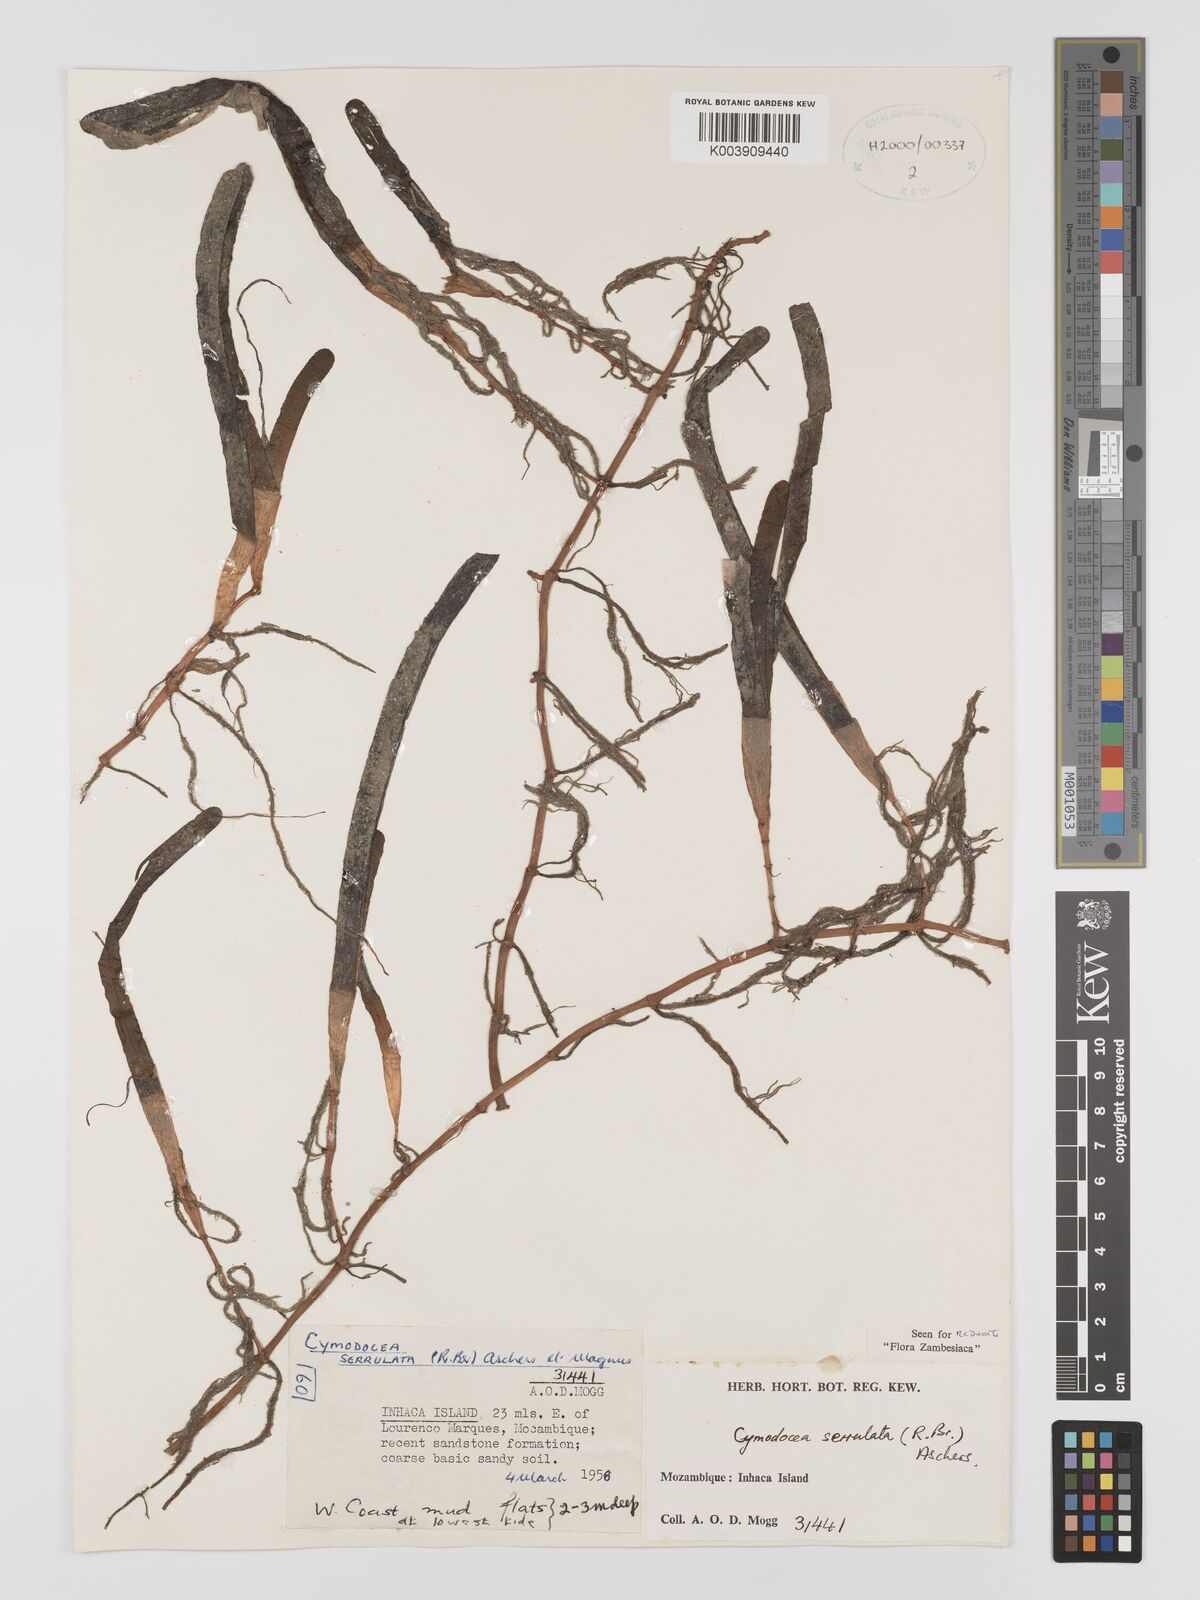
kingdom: Plantae
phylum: Tracheophyta
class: Liliopsida
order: Alismatales
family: Cymodoceaceae
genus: Oceana
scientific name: Oceana serrulata
